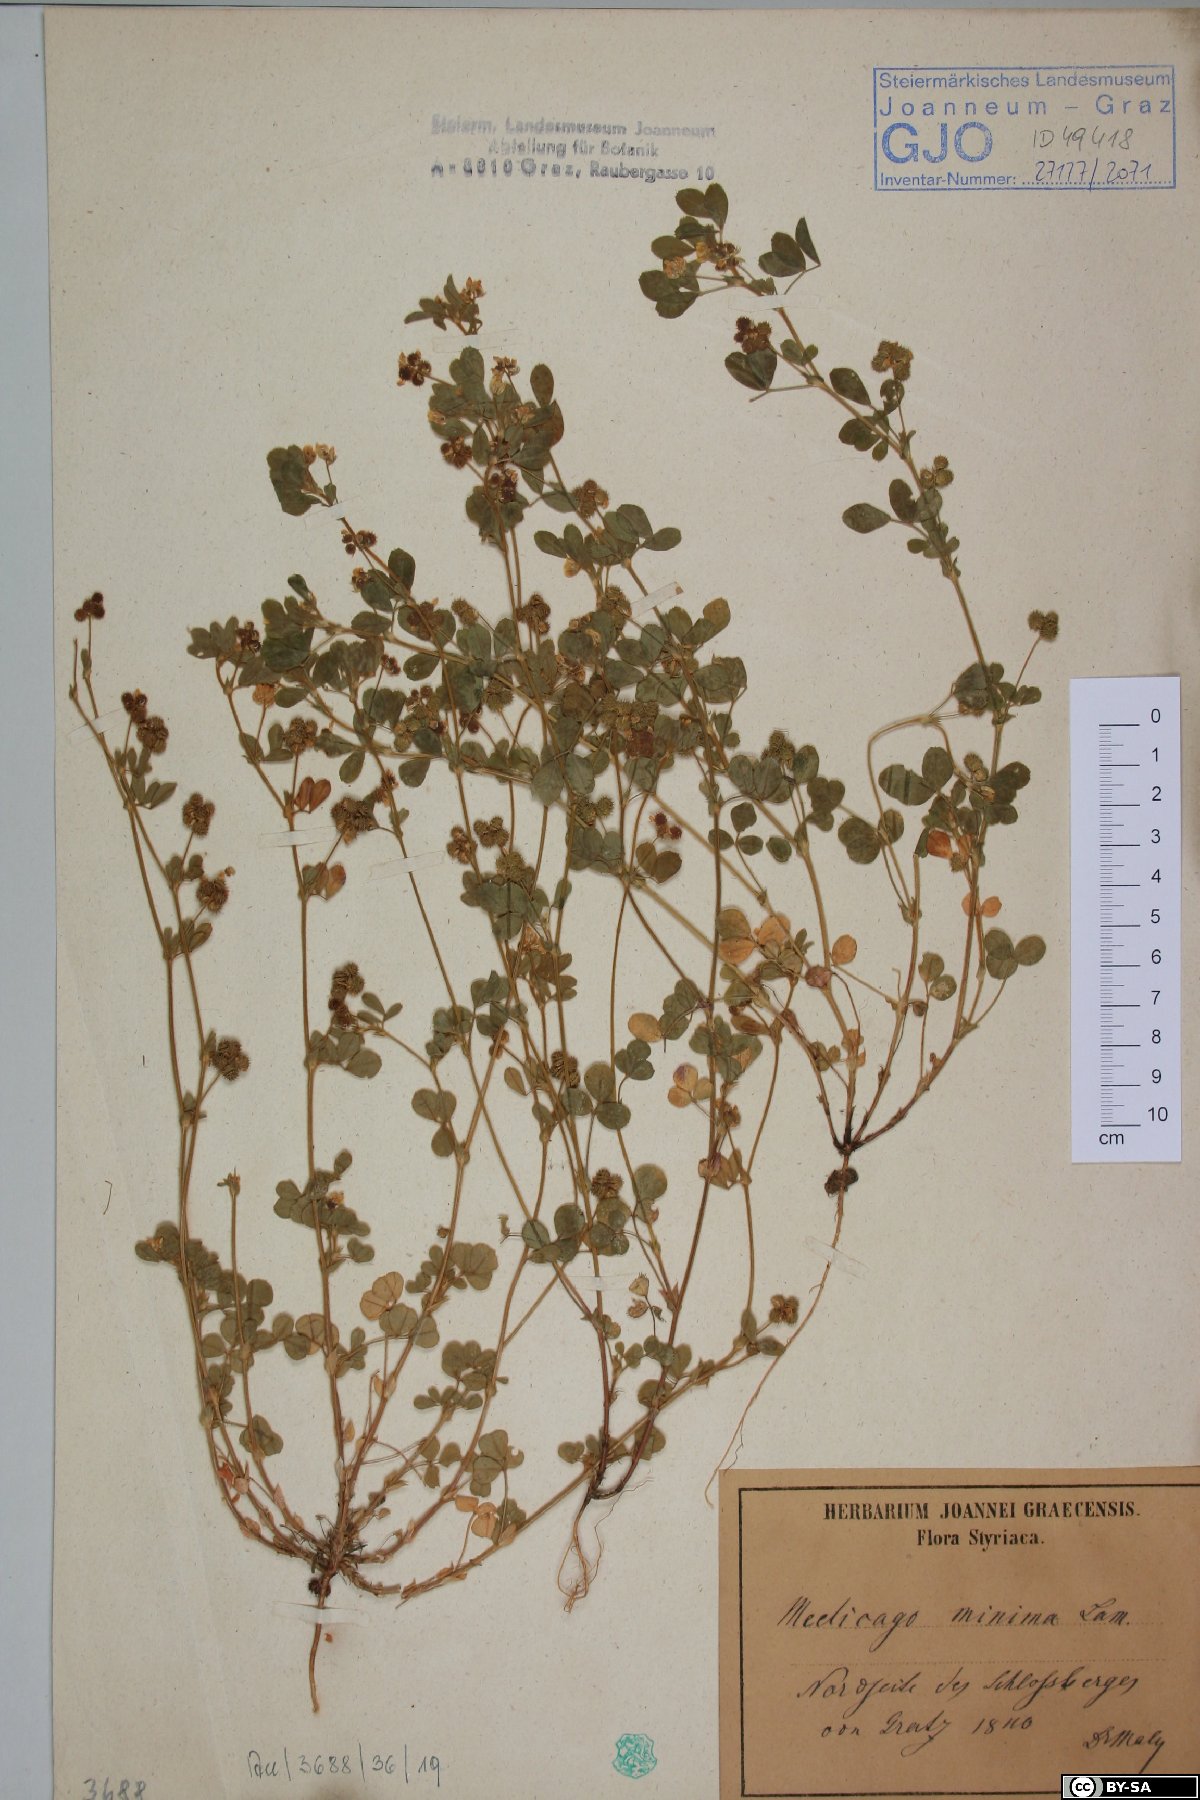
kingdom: Plantae
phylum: Tracheophyta
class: Magnoliopsida
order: Fabales
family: Fabaceae
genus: Medicago
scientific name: Medicago minima
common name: Little bur-clover
